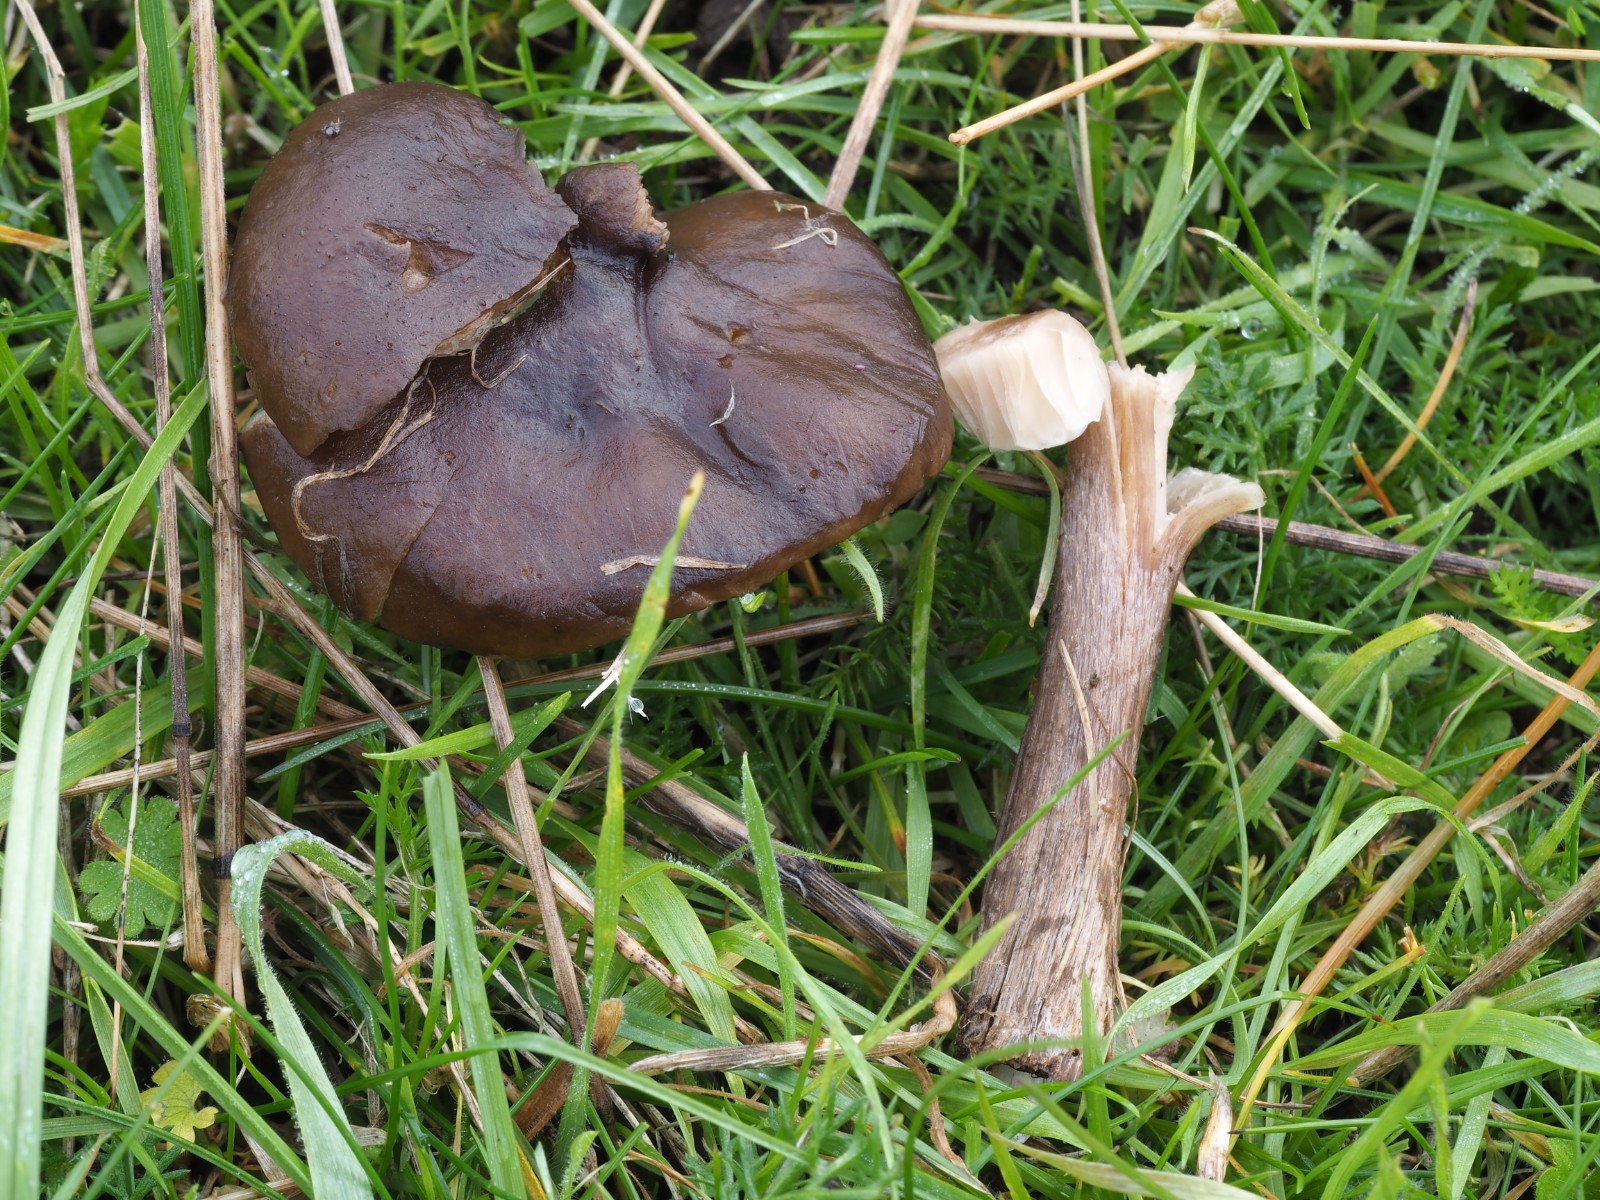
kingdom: Fungi
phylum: Basidiomycota
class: Agaricomycetes
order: Agaricales
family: Tricholomataceae
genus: Melanoleuca
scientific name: Melanoleuca
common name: munkehat
